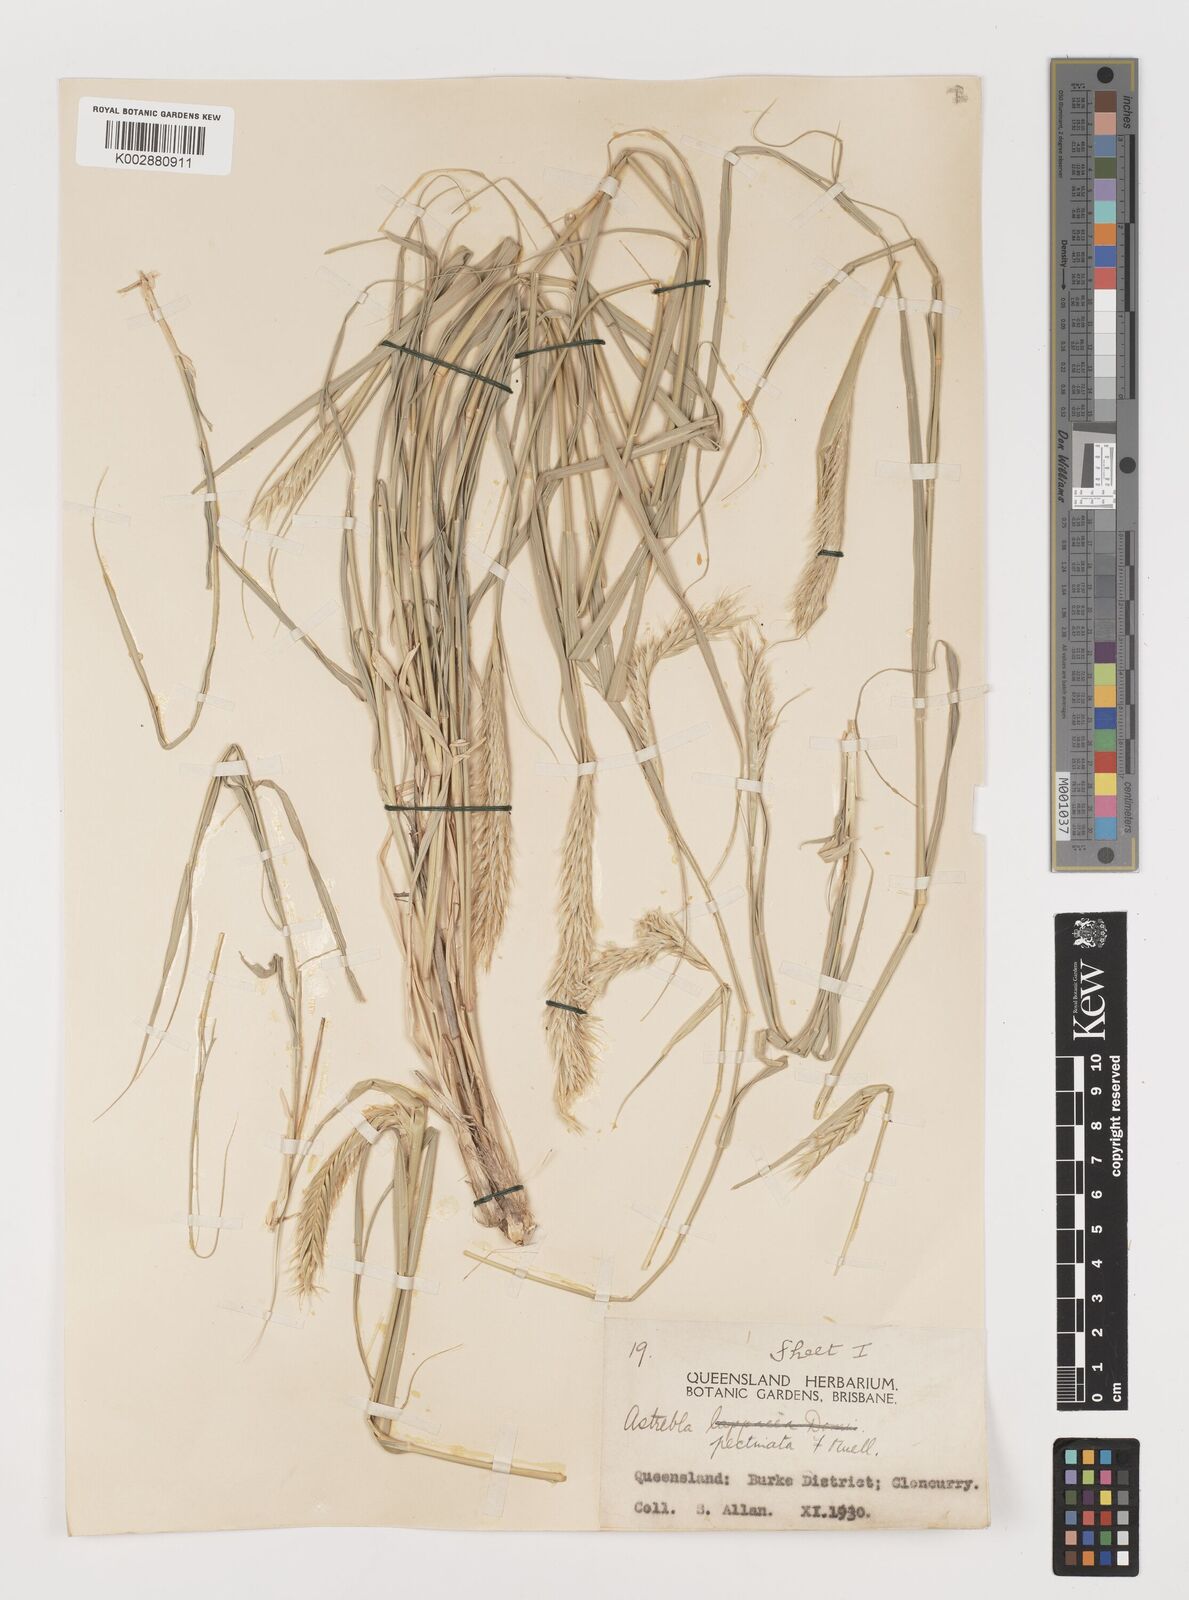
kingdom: Plantae
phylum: Tracheophyta
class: Liliopsida
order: Poales
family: Poaceae
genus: Astrebla
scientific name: Astrebla pectinata
